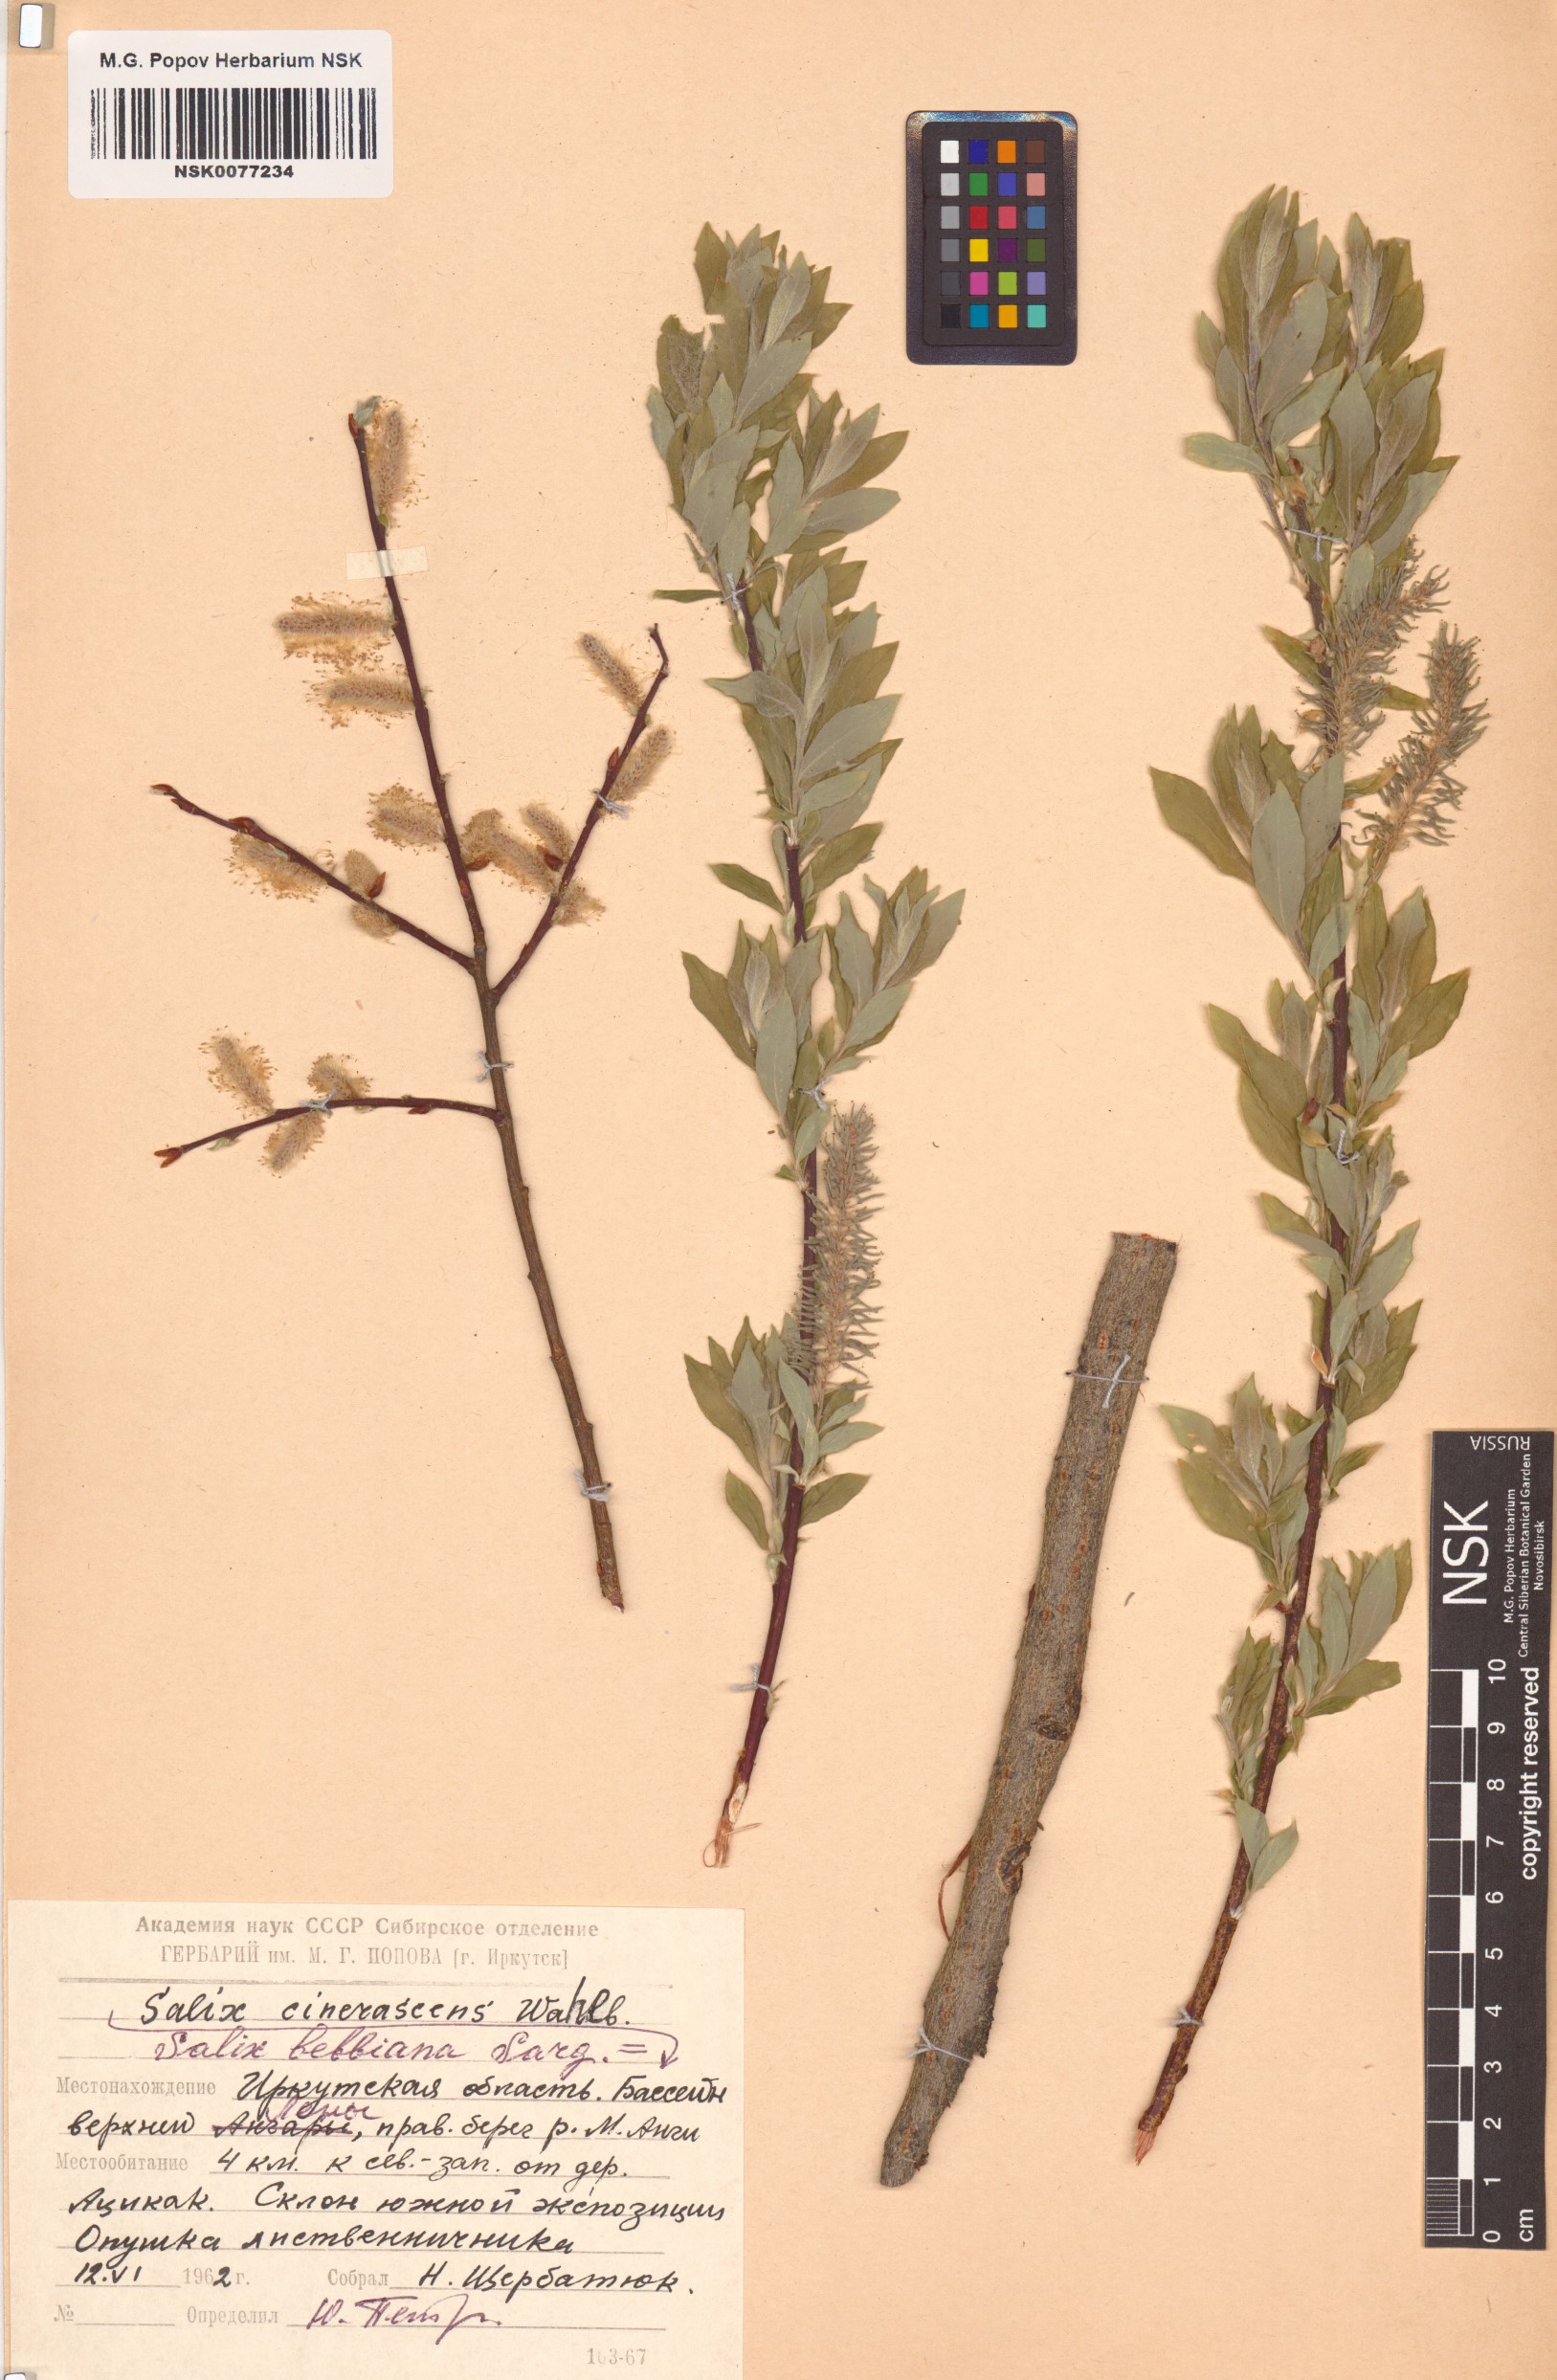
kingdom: Plantae
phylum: Tracheophyta
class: Magnoliopsida
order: Malpighiales
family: Salicaceae
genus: Salix
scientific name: Salix bebbiana
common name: Bebb's willow
